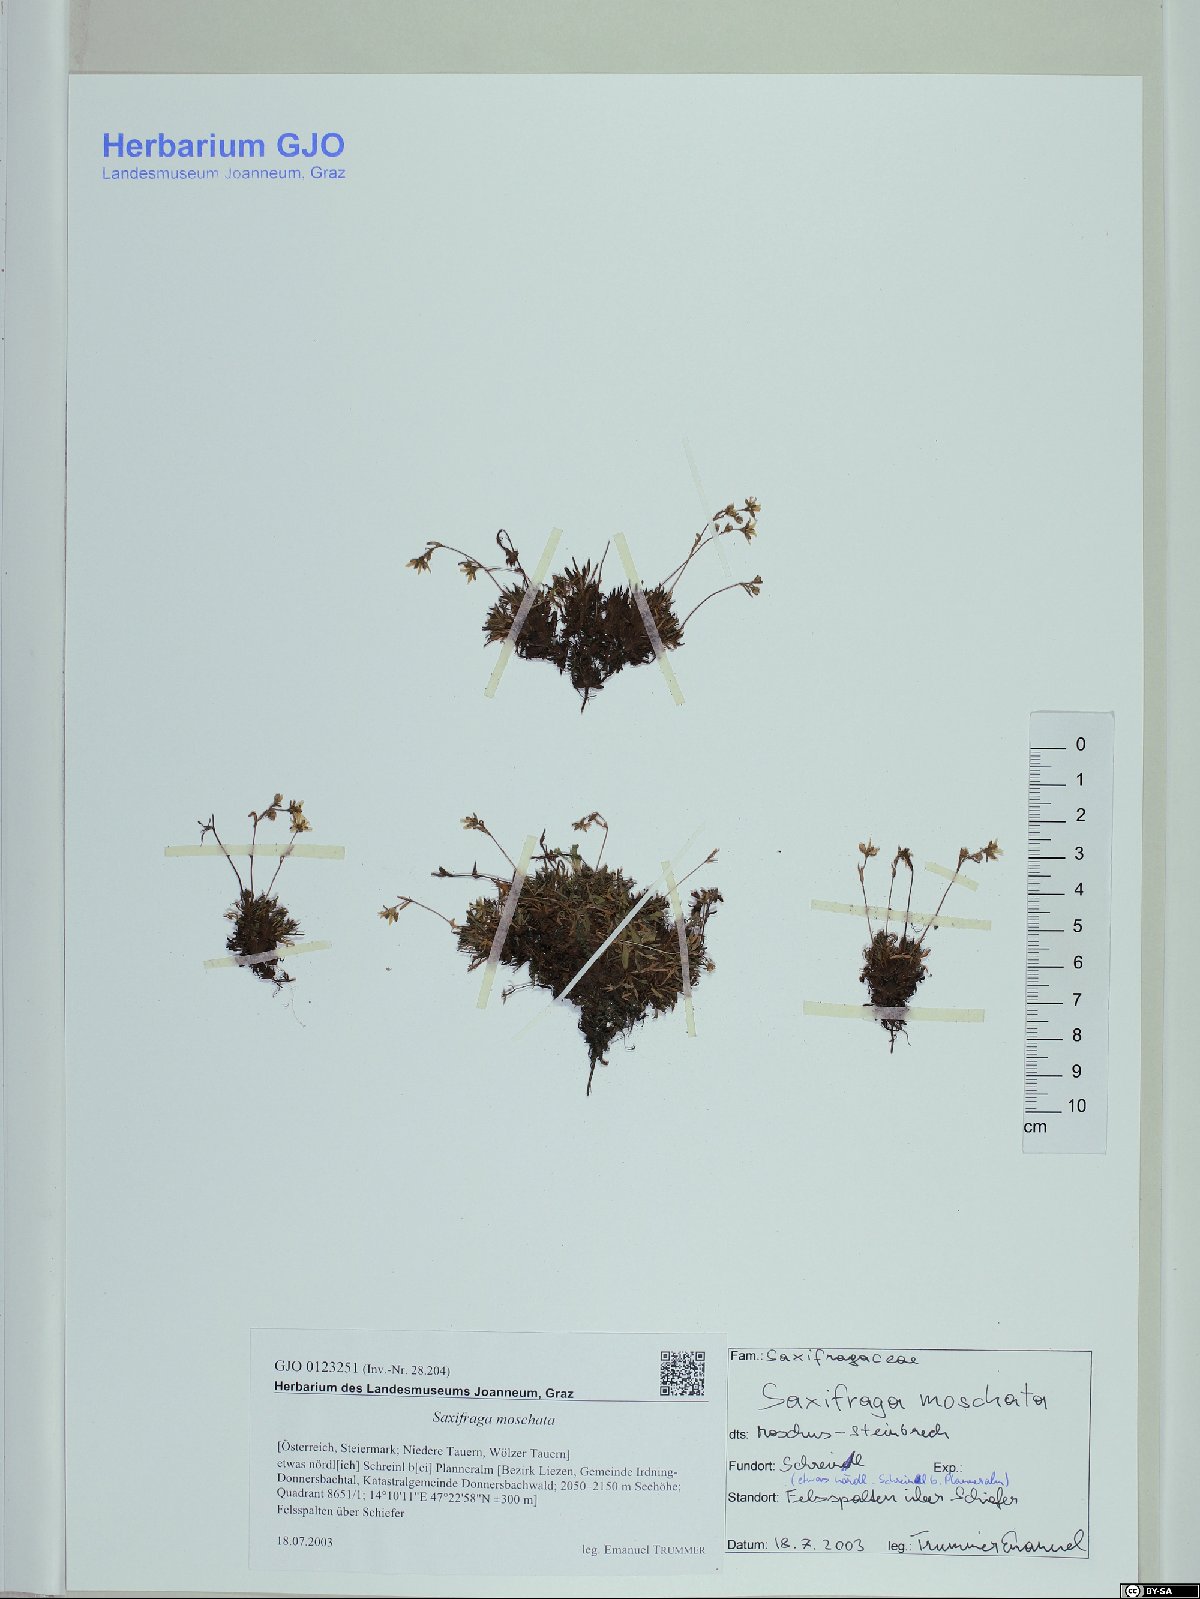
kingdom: Plantae
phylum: Tracheophyta
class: Magnoliopsida
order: Saxifragales
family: Saxifragaceae
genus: Saxifraga
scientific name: Saxifraga moschata
